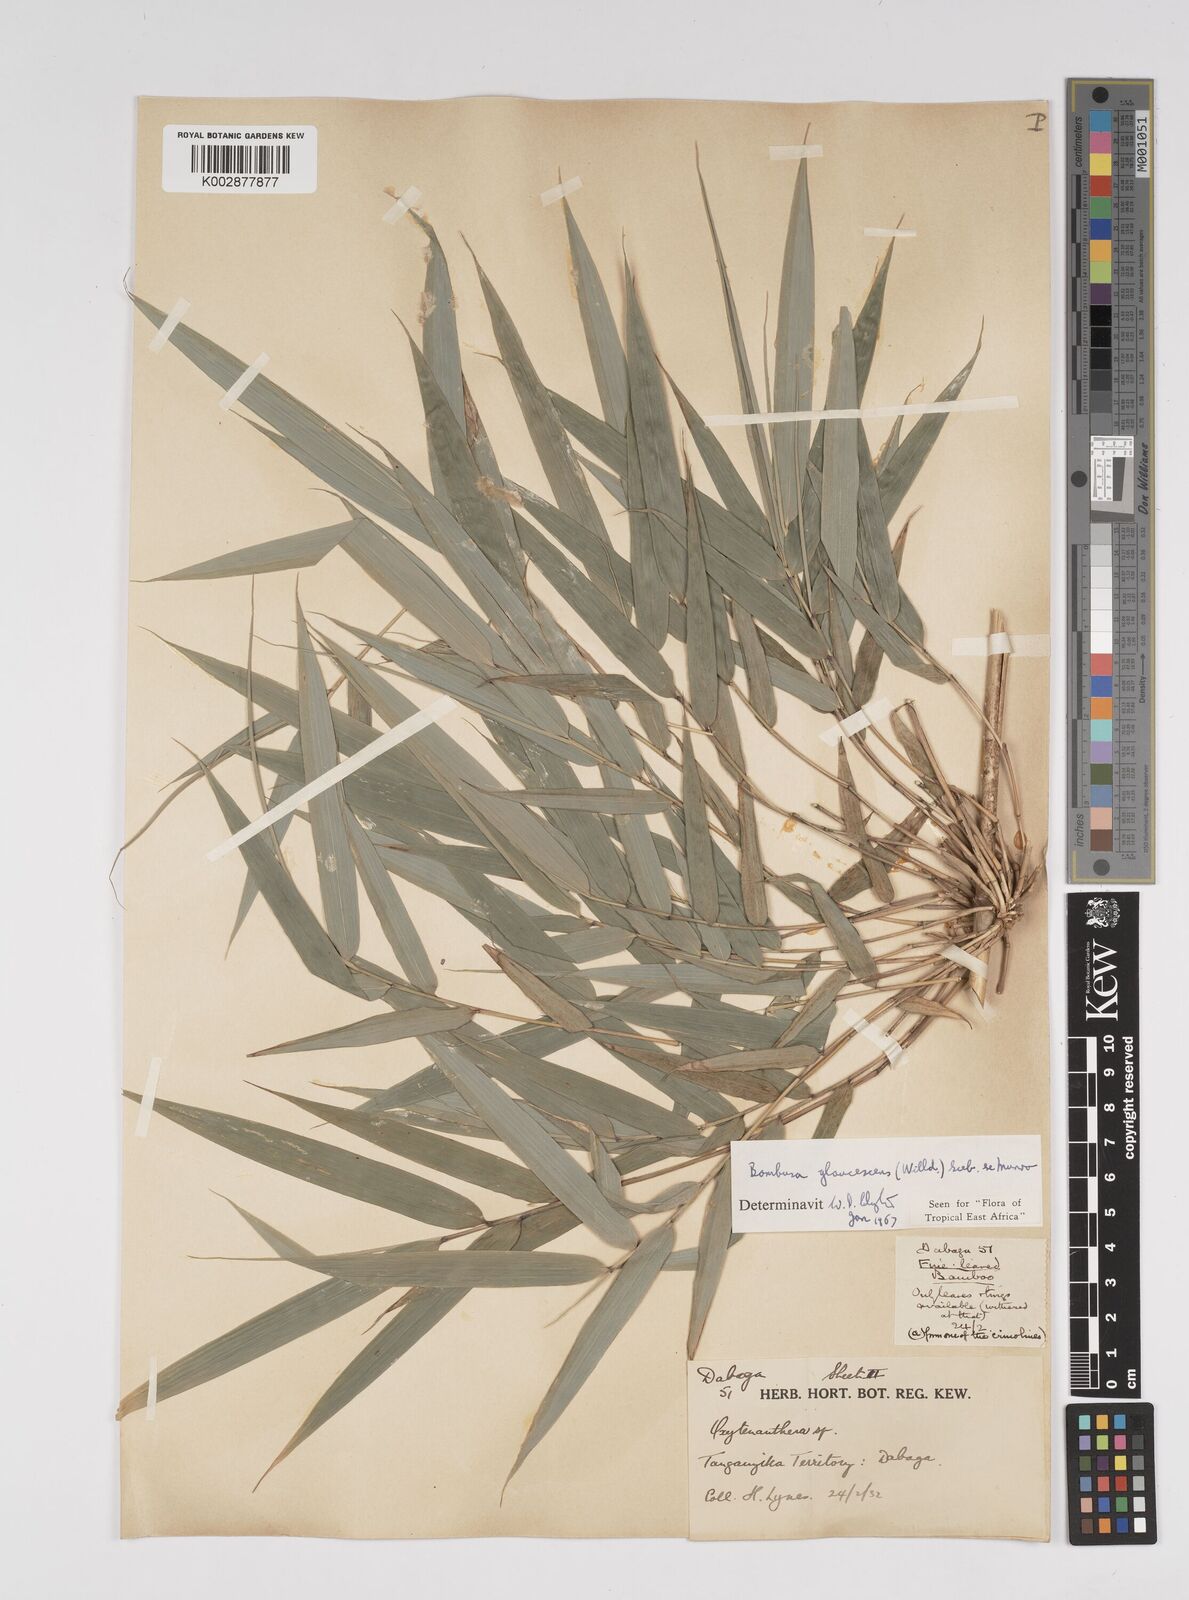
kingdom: Plantae
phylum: Tracheophyta
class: Liliopsida
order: Poales
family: Poaceae
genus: Bambusa
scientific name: Bambusa multiplex
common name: Hedge bamboo
